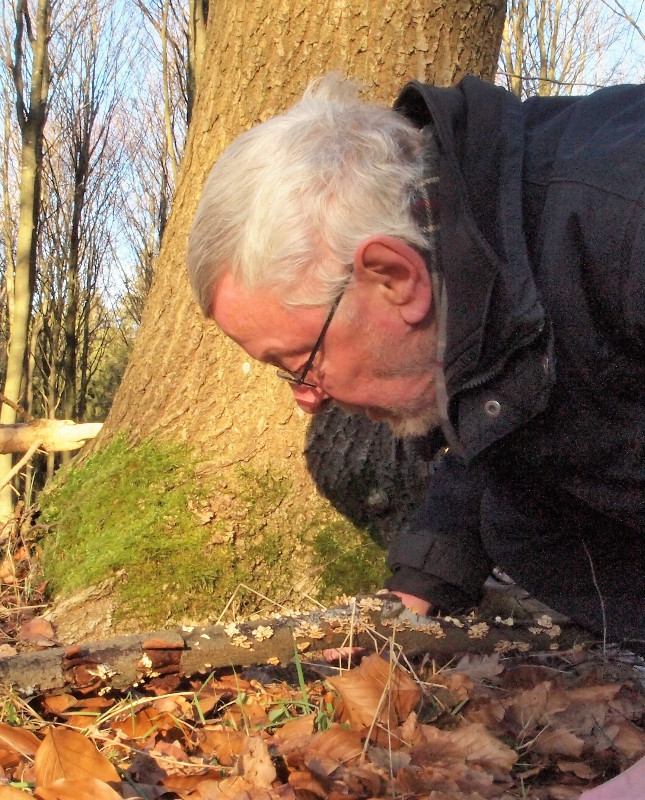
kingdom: Fungi
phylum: Basidiomycota
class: Agaricomycetes
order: Amylocorticiales
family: Amylocorticiaceae
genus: Plicaturopsis
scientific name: Plicaturopsis crispa
